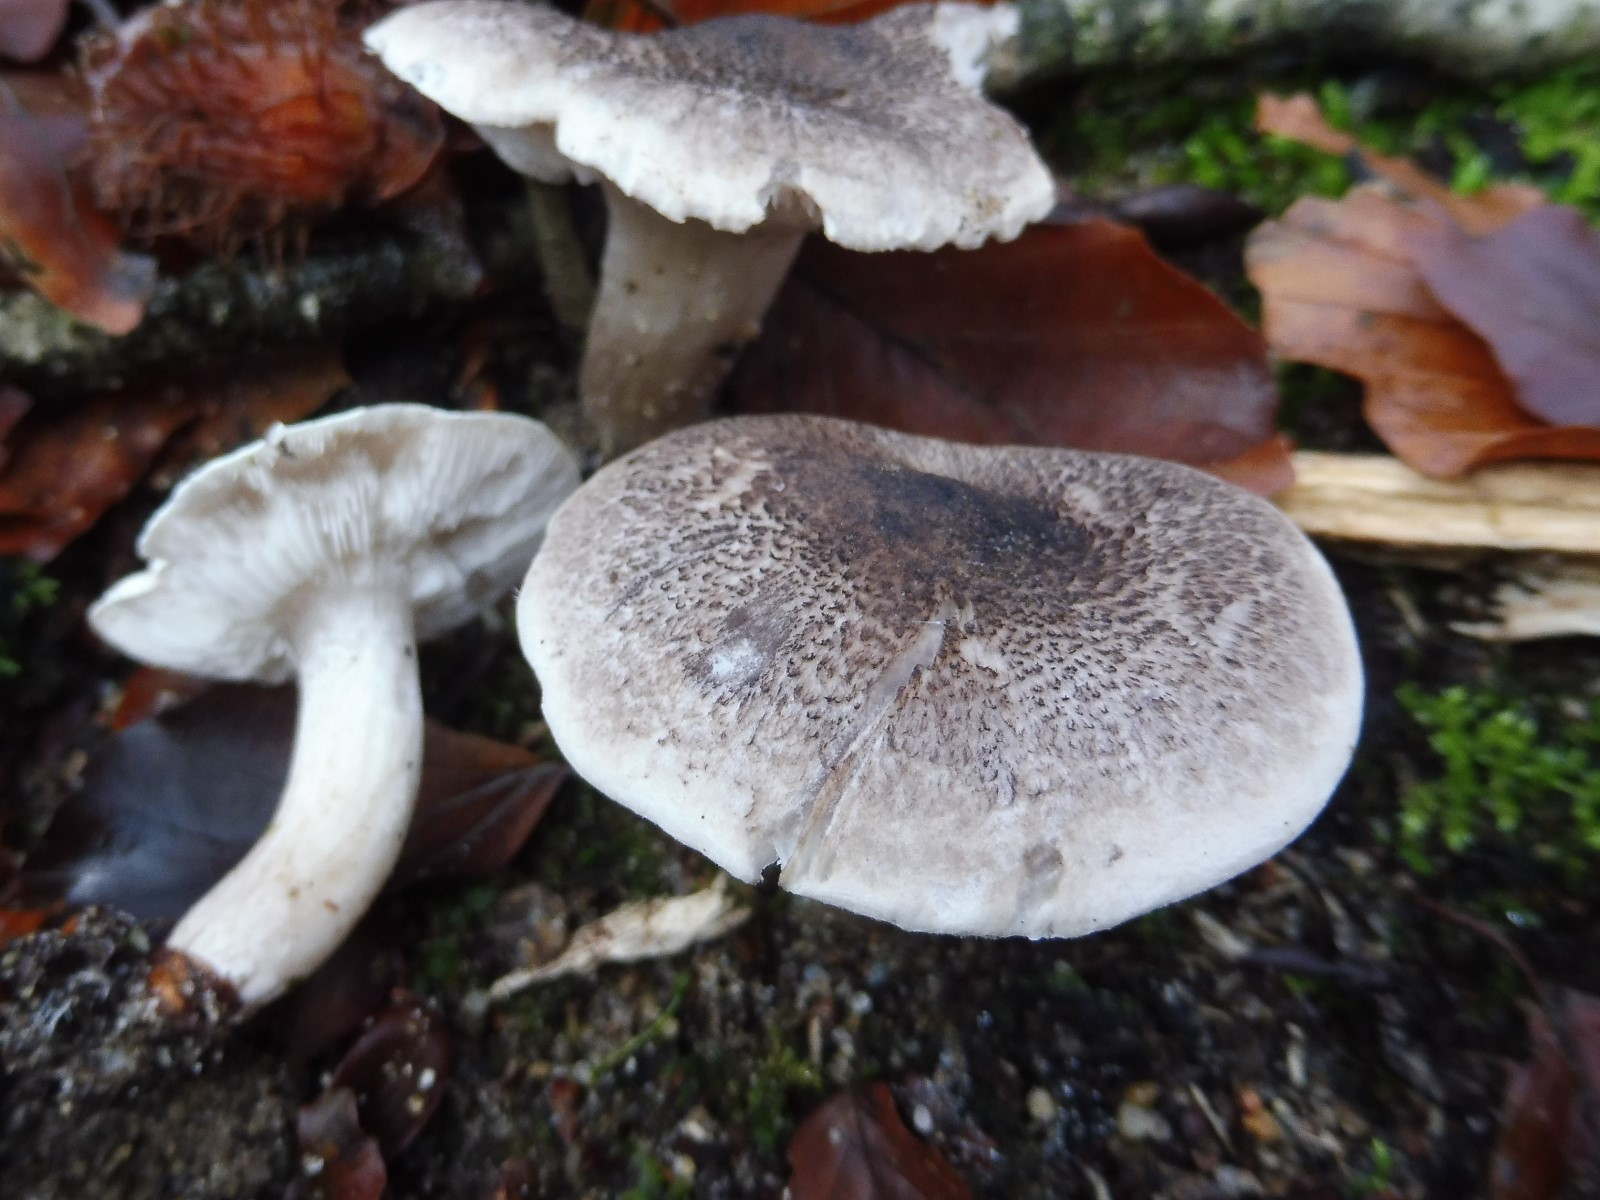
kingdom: Fungi
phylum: Basidiomycota
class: Agaricomycetes
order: Agaricales
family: Tricholomataceae
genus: Tricholoma
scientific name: Tricholoma scalpturatum
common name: gulplettet ridderhat
